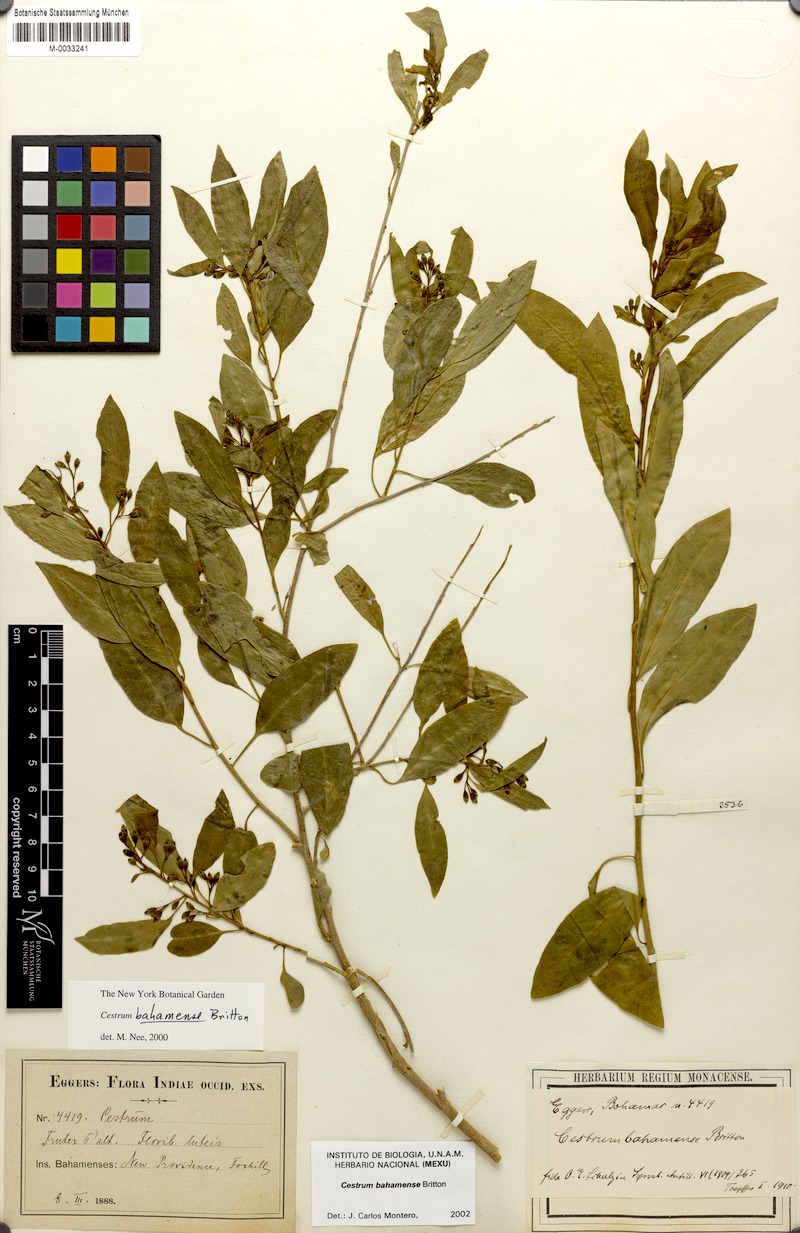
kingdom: Plantae
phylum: Tracheophyta
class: Magnoliopsida
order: Solanales
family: Solanaceae
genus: Cestrum
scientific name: Cestrum bahamense
